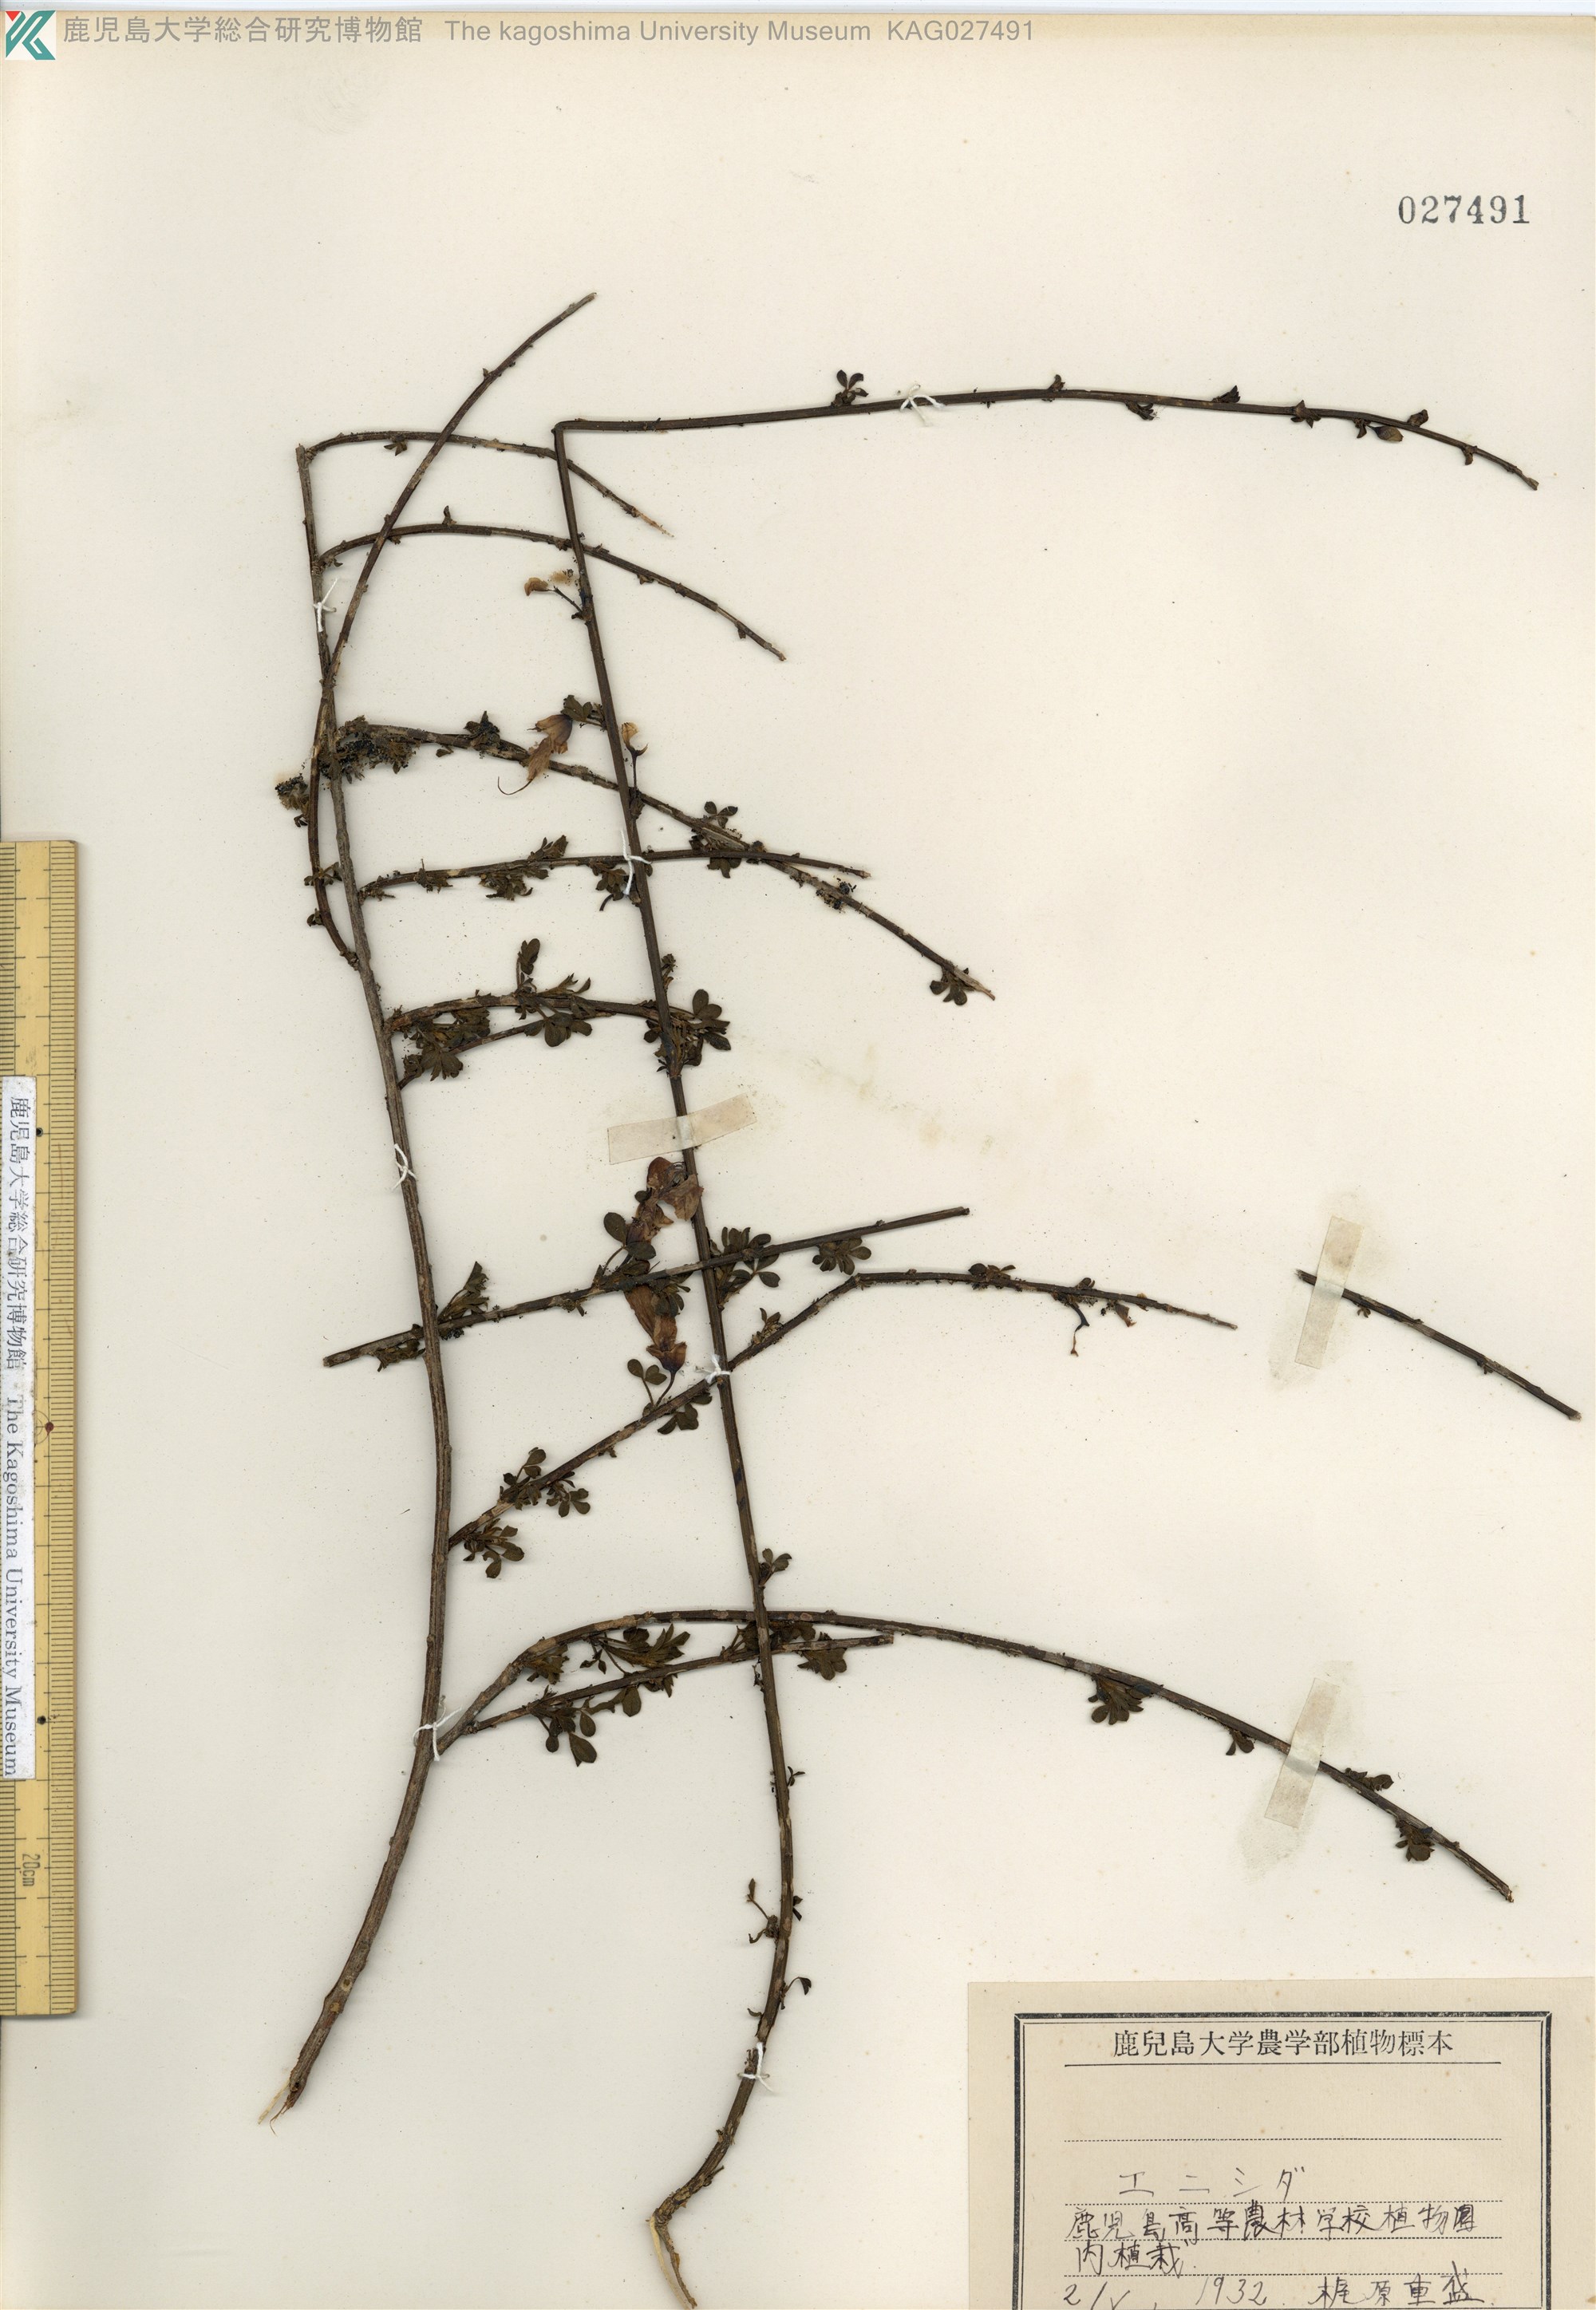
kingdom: Plantae
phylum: Tracheophyta
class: Magnoliopsida
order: Fabales
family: Fabaceae
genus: Cytisus
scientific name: Cytisus scoparius
